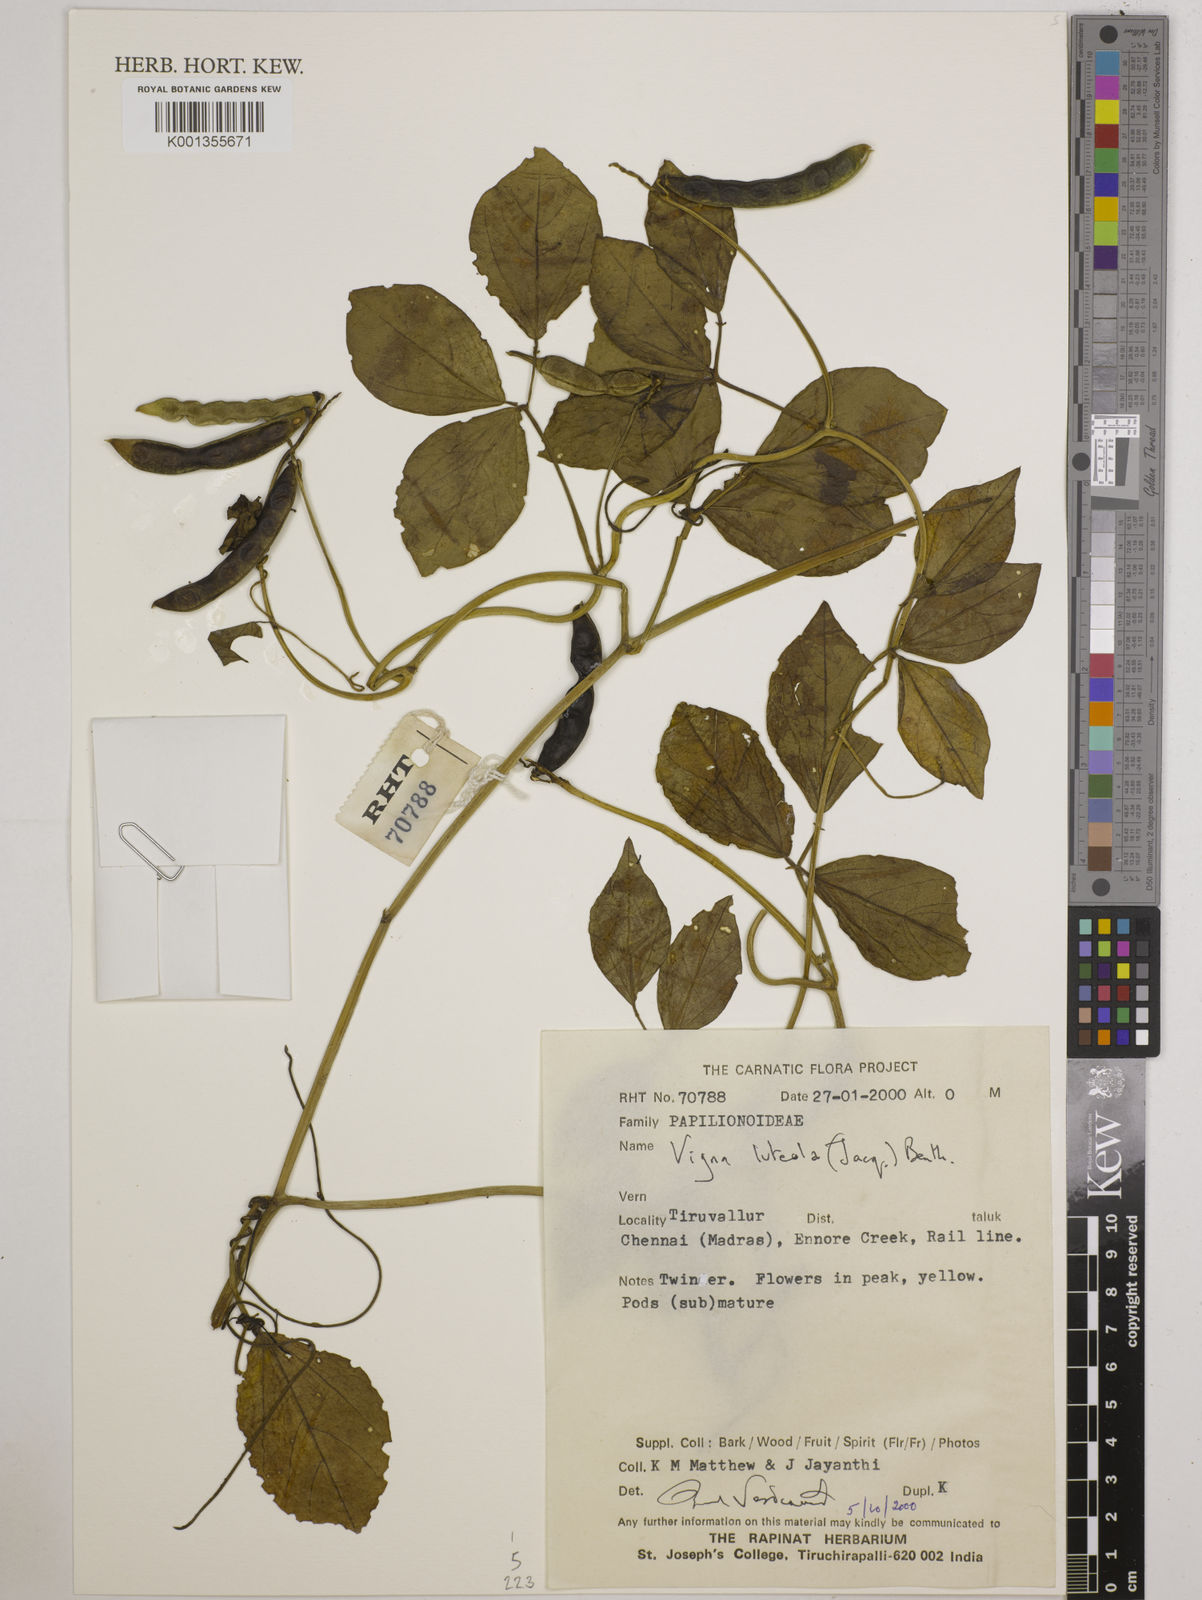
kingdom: Plantae
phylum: Tracheophyta
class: Magnoliopsida
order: Fabales
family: Fabaceae
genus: Vigna
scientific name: Vigna luteola
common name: Hairypod cowpea
